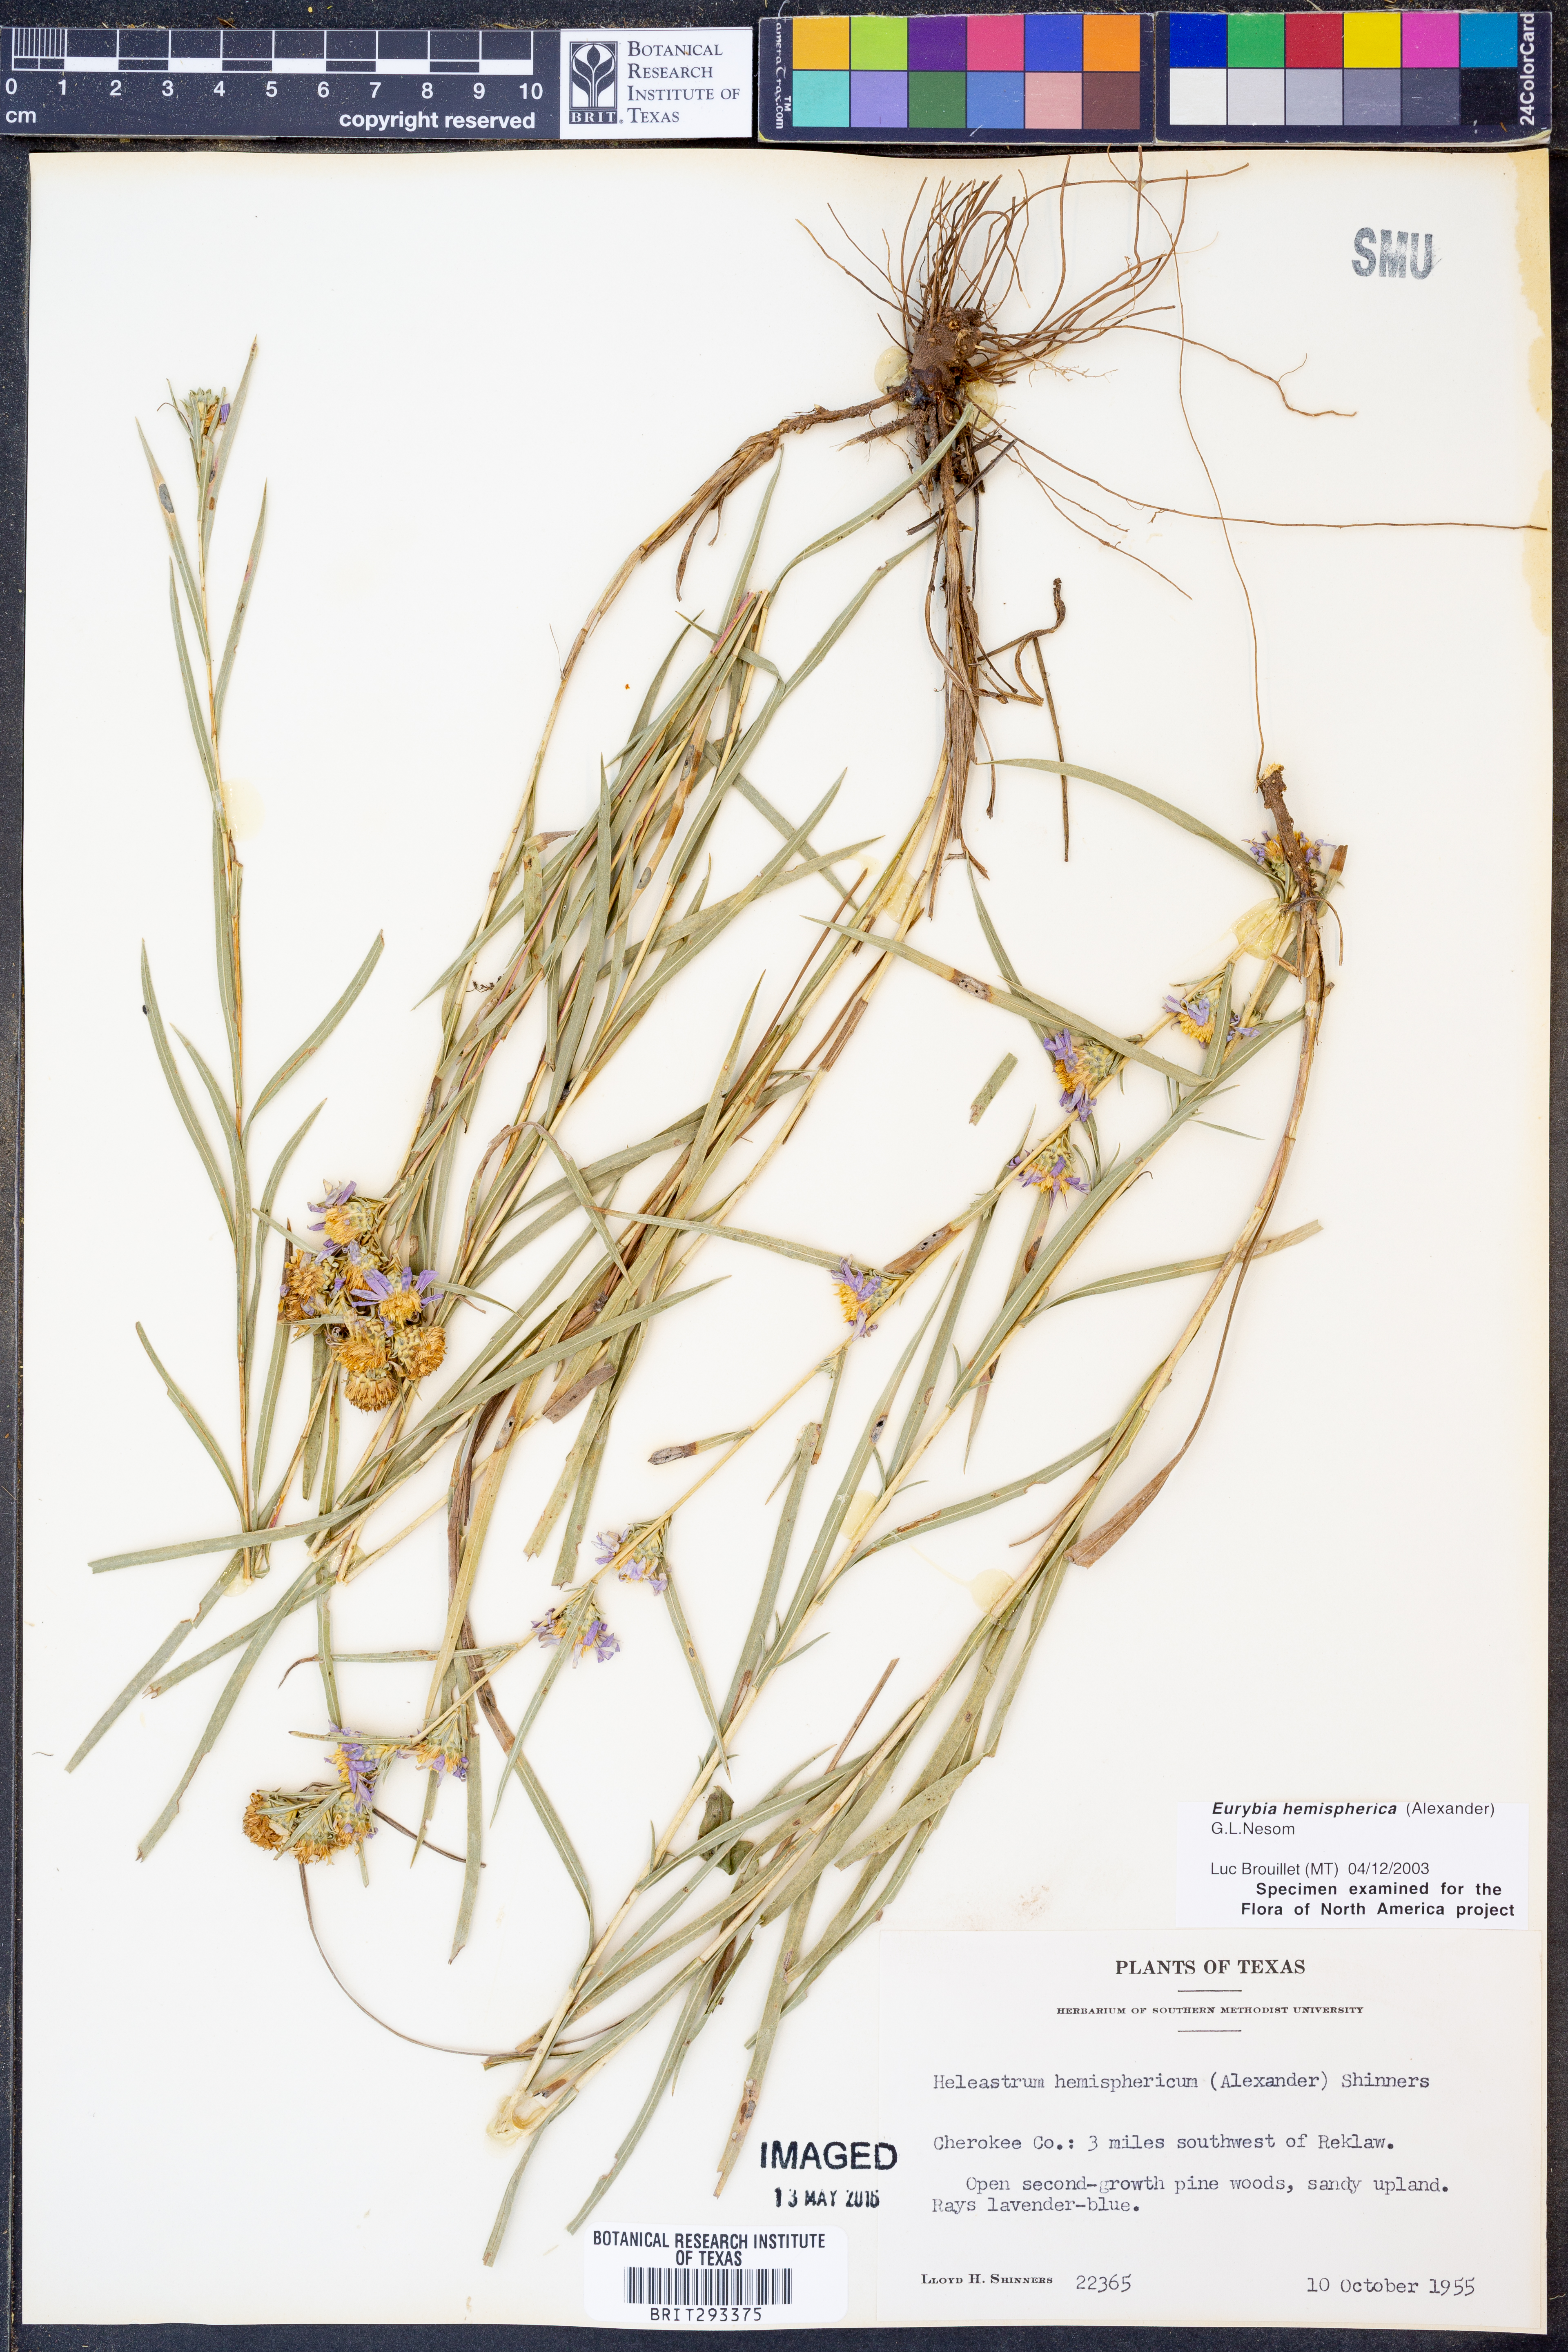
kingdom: Plantae
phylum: Tracheophyta
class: Magnoliopsida
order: Asterales
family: Asteraceae
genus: Eurybia
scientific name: Eurybia hemispherica
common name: Showy aster
